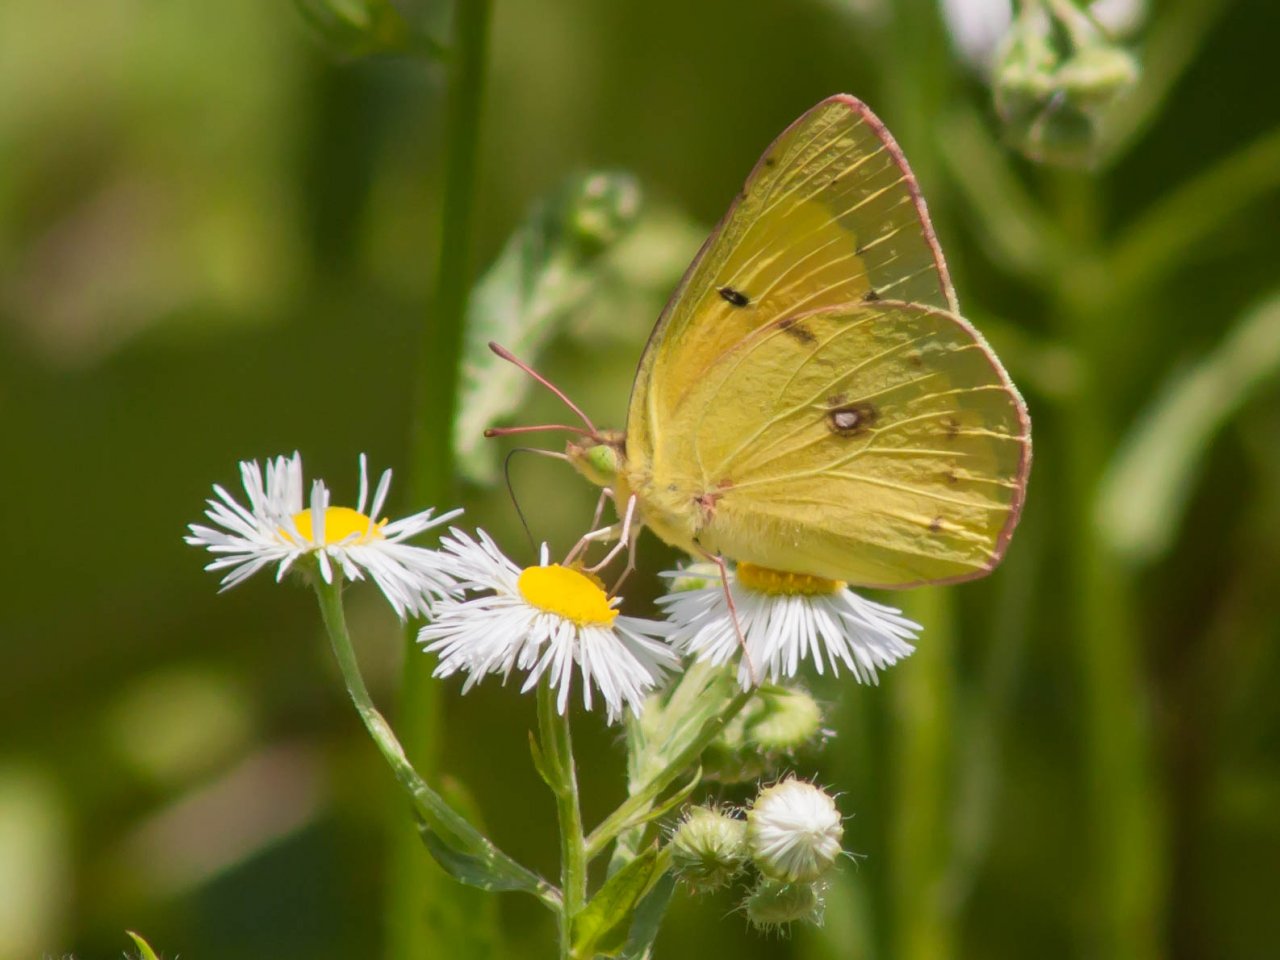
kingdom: Animalia
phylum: Arthropoda
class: Insecta
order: Lepidoptera
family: Pieridae
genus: Colias
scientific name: Colias eurytheme
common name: Orange Sulphur
